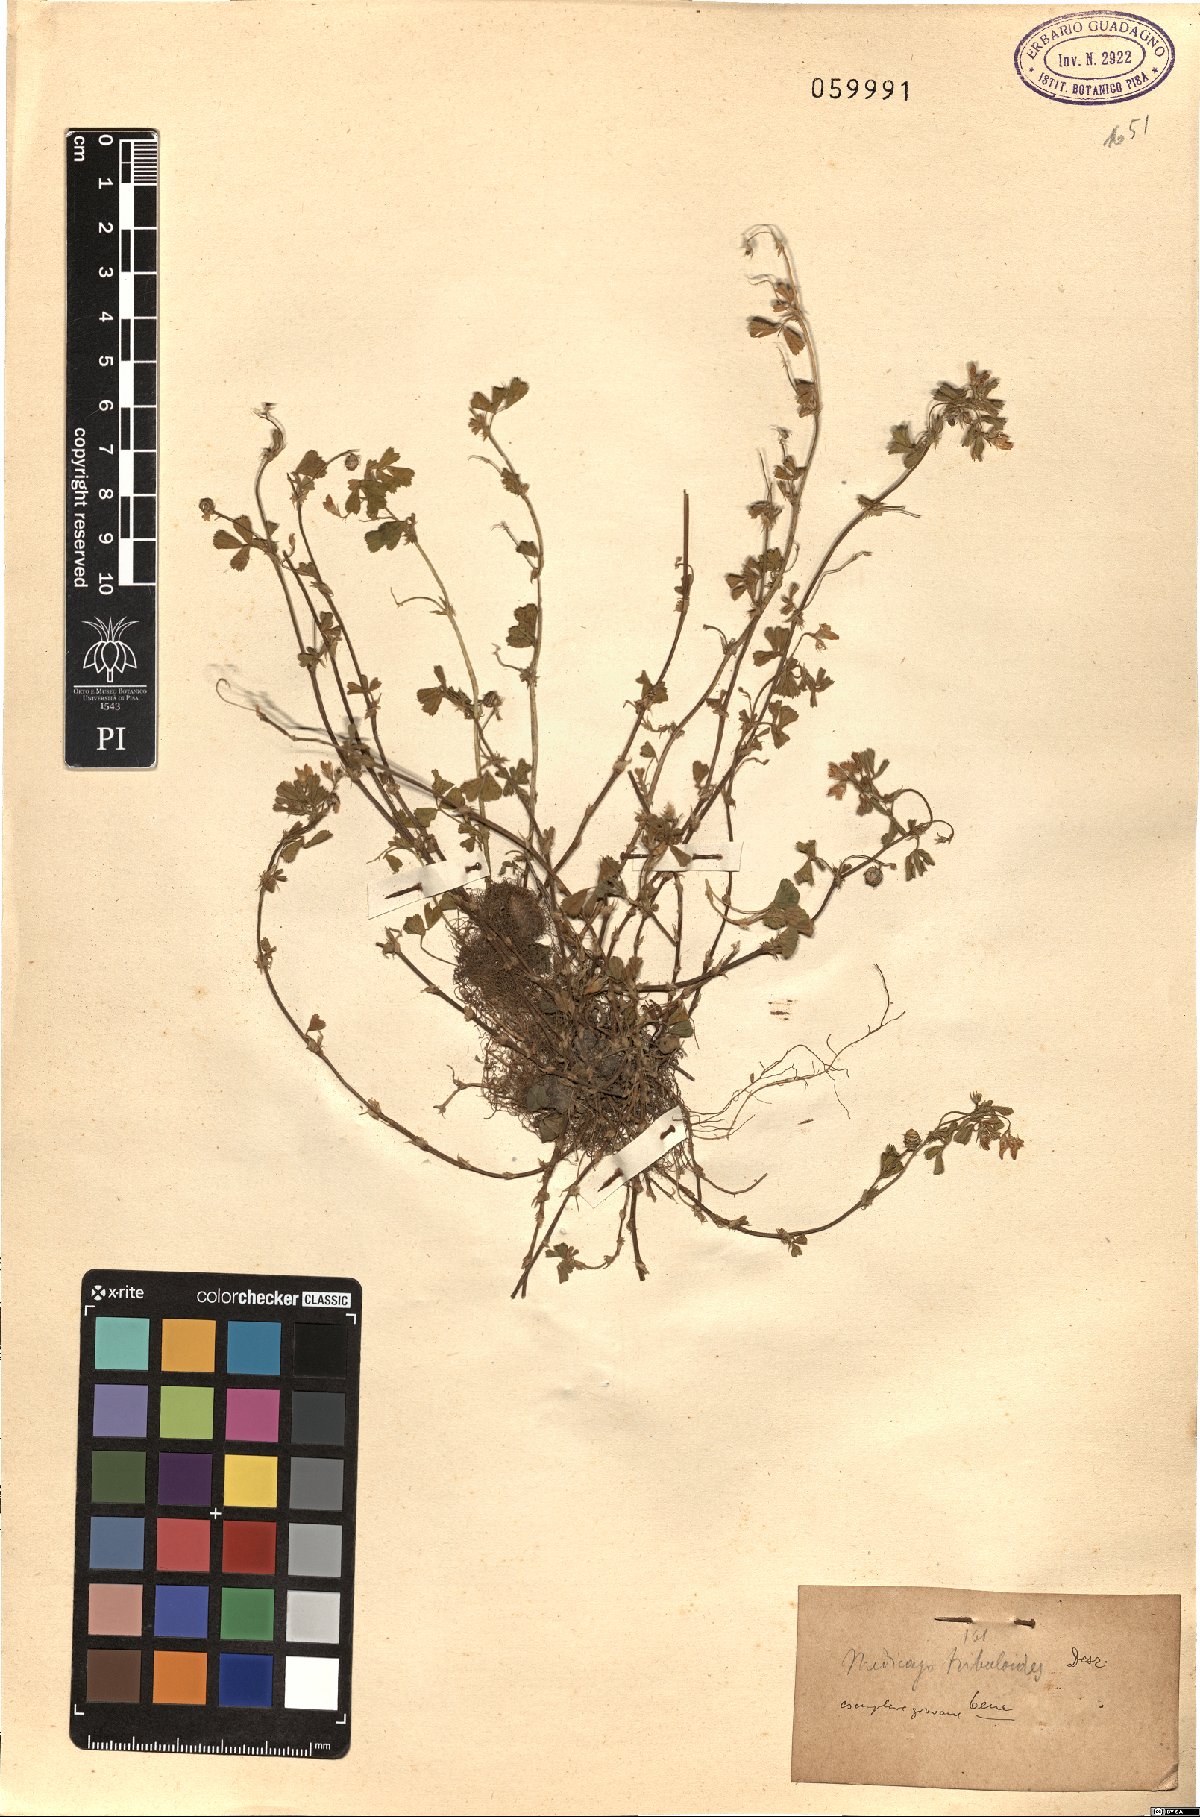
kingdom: Plantae
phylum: Tracheophyta
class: Magnoliopsida
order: Fabales
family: Fabaceae
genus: Medicago
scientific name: Medicago truncatula
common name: Strong-spined medick
